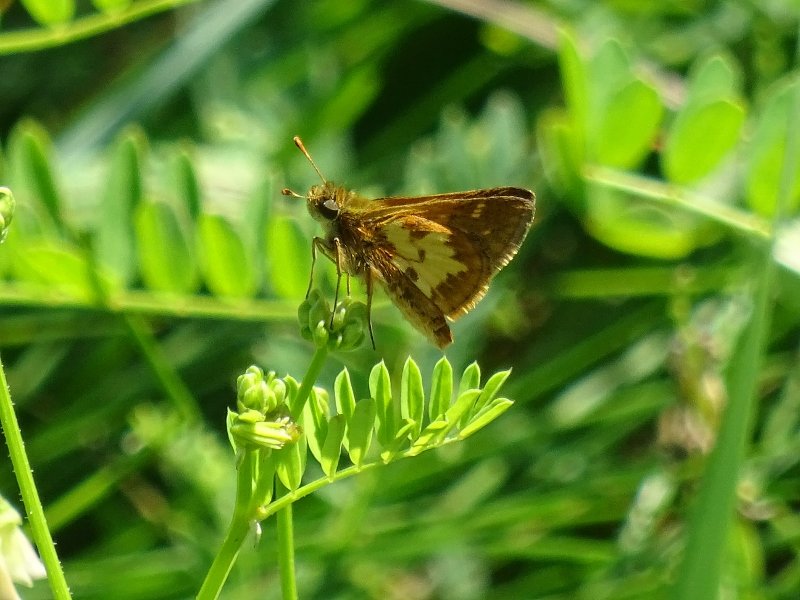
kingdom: Animalia
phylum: Arthropoda
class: Insecta
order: Lepidoptera
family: Hesperiidae
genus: Polites
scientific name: Polites coras
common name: Peck's Skipper
